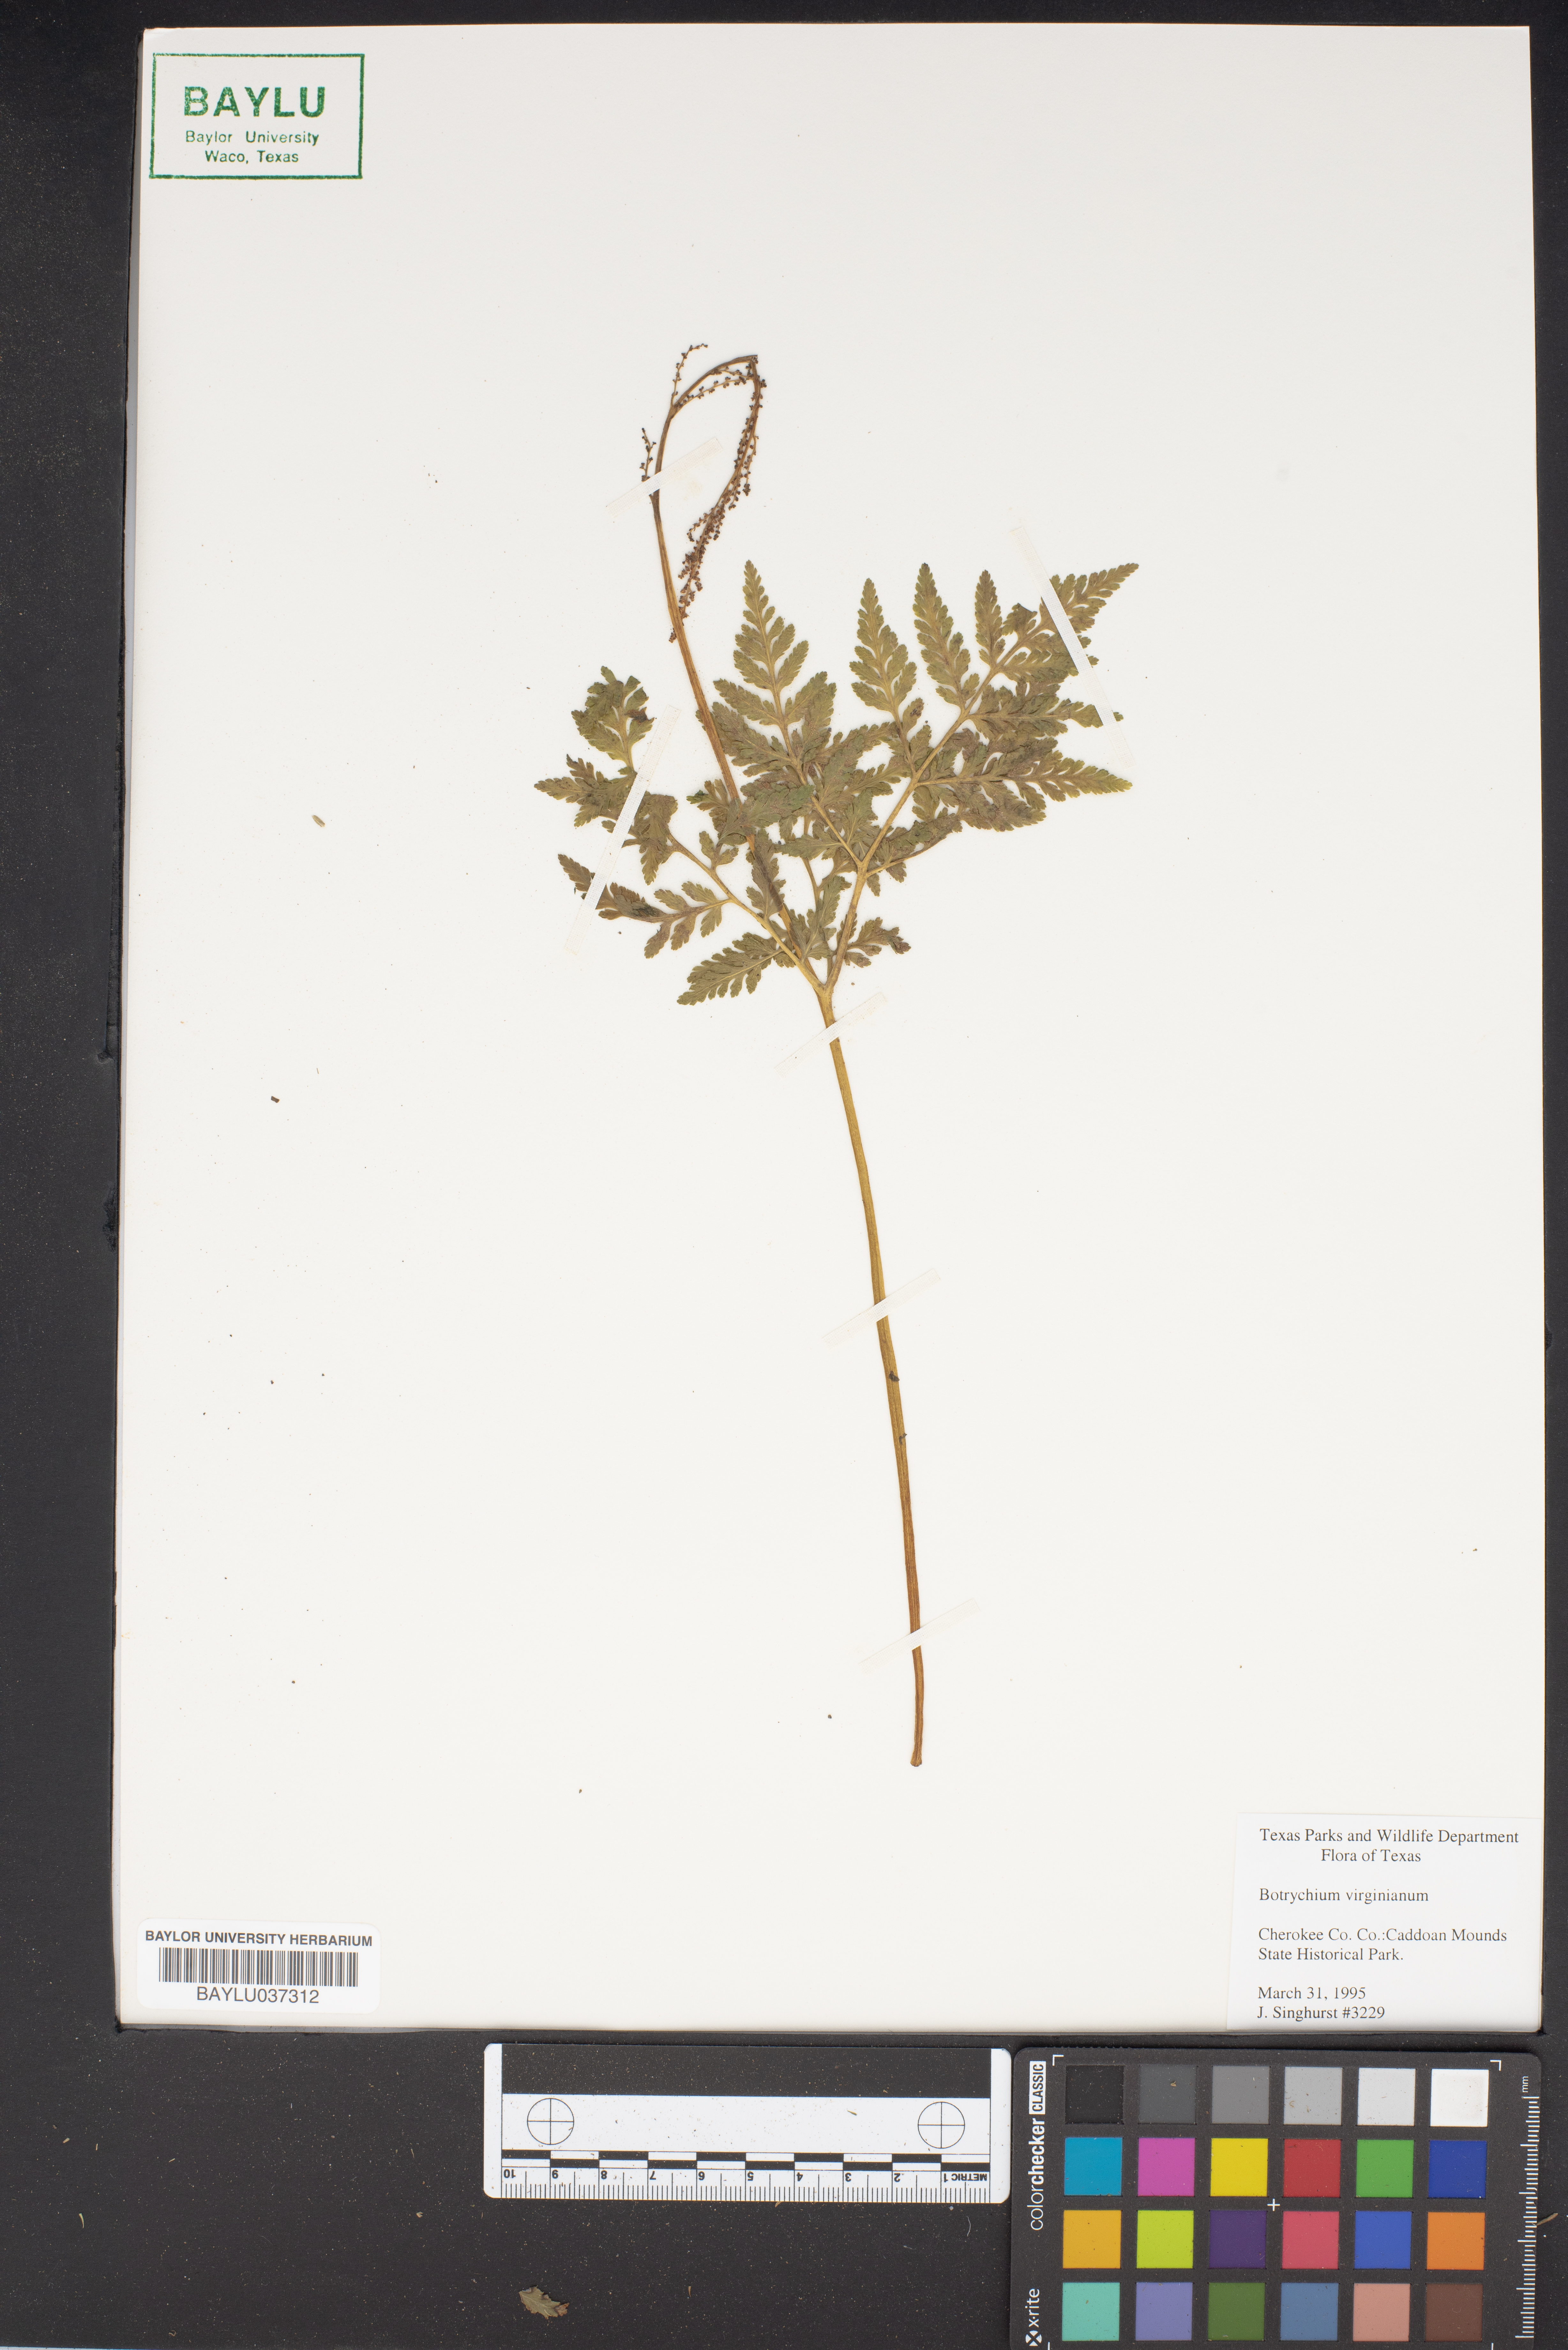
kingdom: Plantae
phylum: Tracheophyta
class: Polypodiopsida
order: Ophioglossales
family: Ophioglossaceae
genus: Botrypus
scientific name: Botrypus virginianus
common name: Common grapefern
